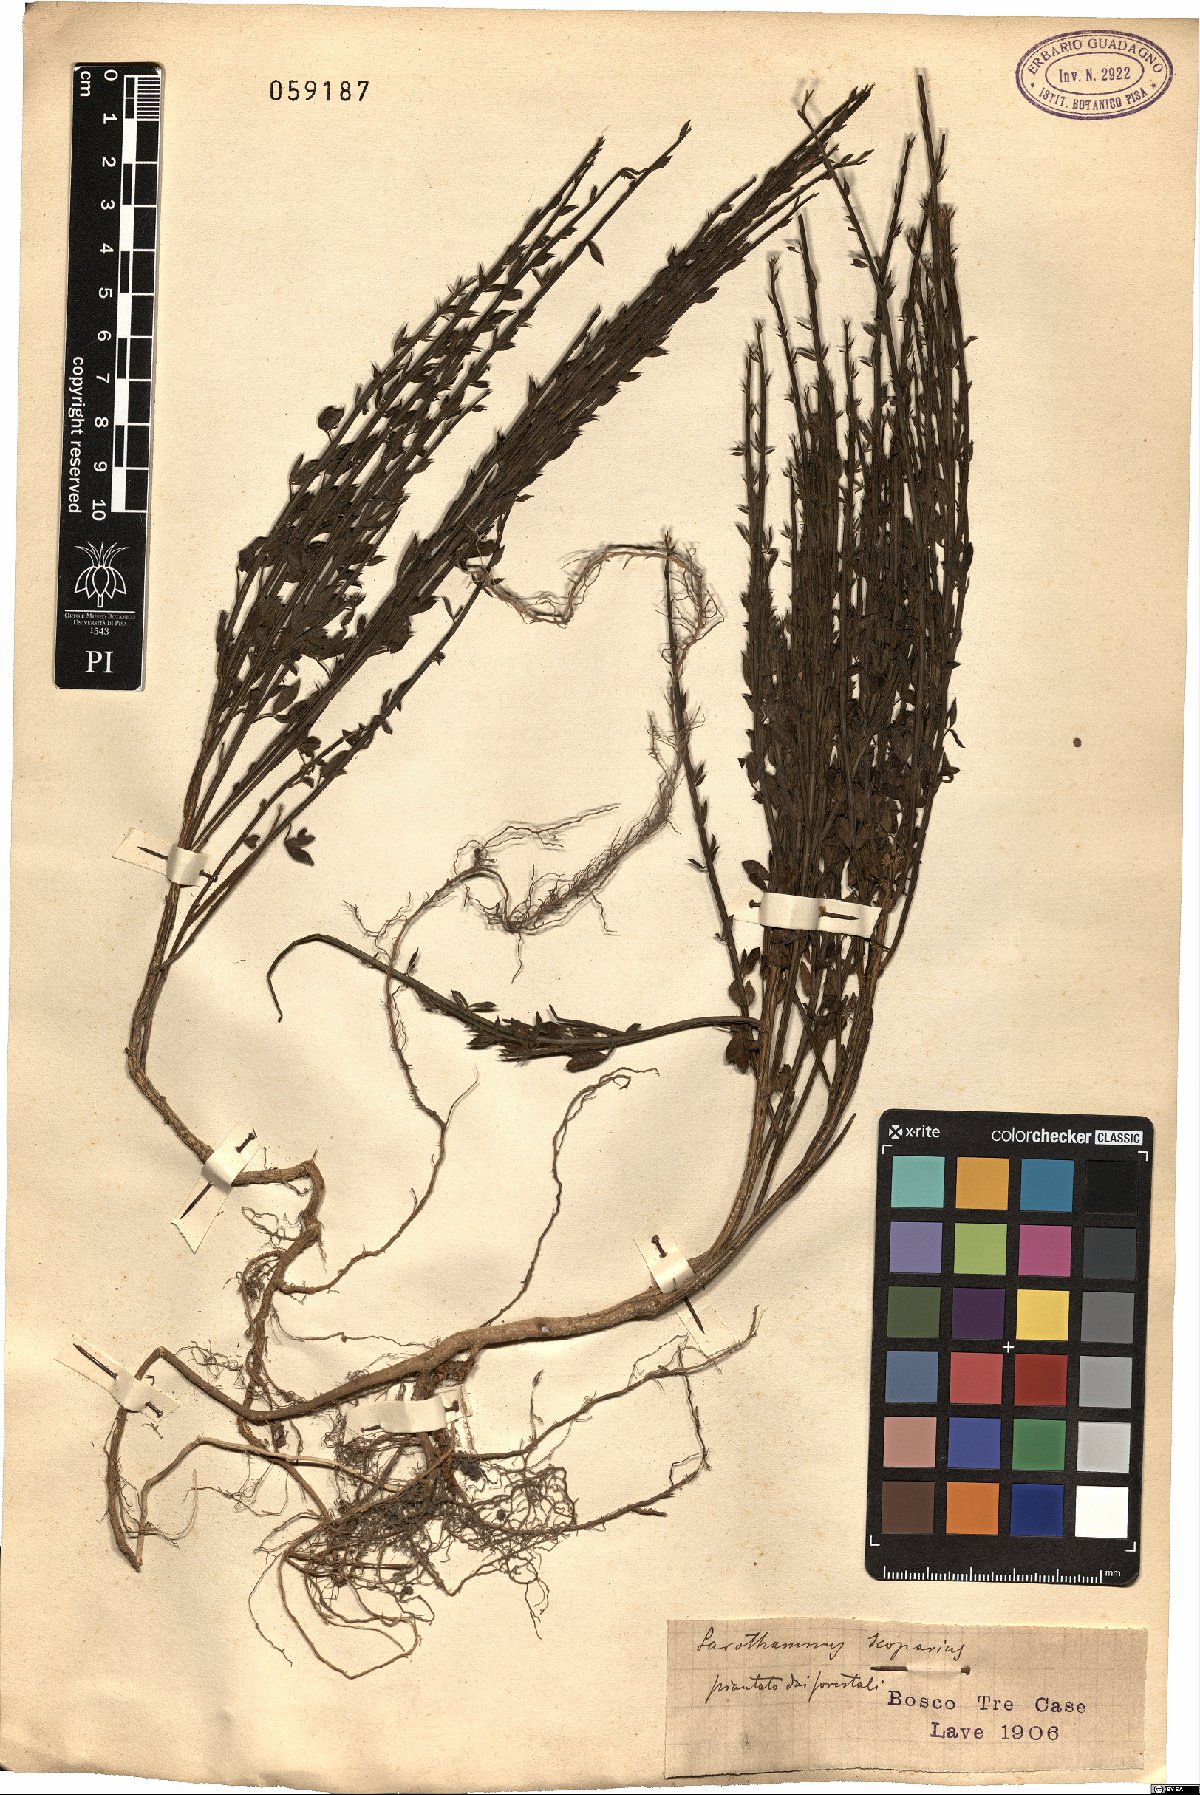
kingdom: Plantae
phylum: Tracheophyta
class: Magnoliopsida
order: Fabales
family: Fabaceae
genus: Cytisus
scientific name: Cytisus scoparius
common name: Scotch broom
